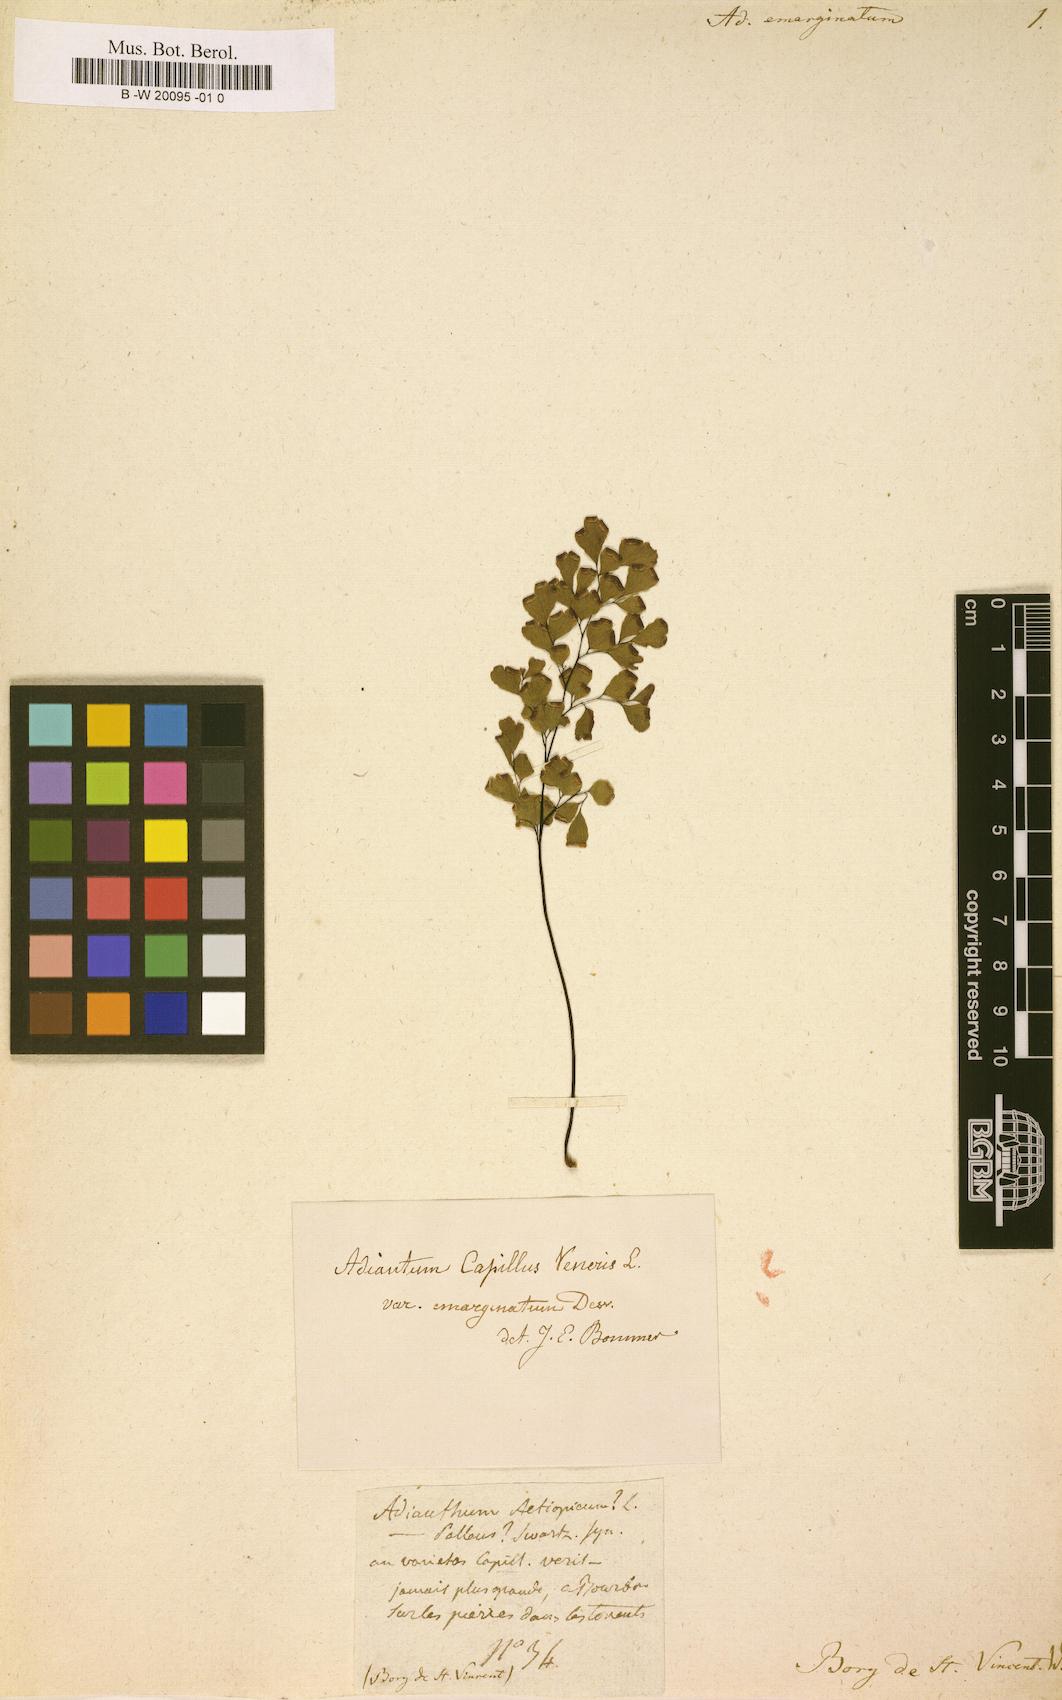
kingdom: Plantae
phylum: Tracheophyta
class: Polypodiopsida
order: Polypodiales
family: Pteridaceae
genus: Adiantum
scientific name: Adiantum capillus-veneris
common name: Maidenhair fern
